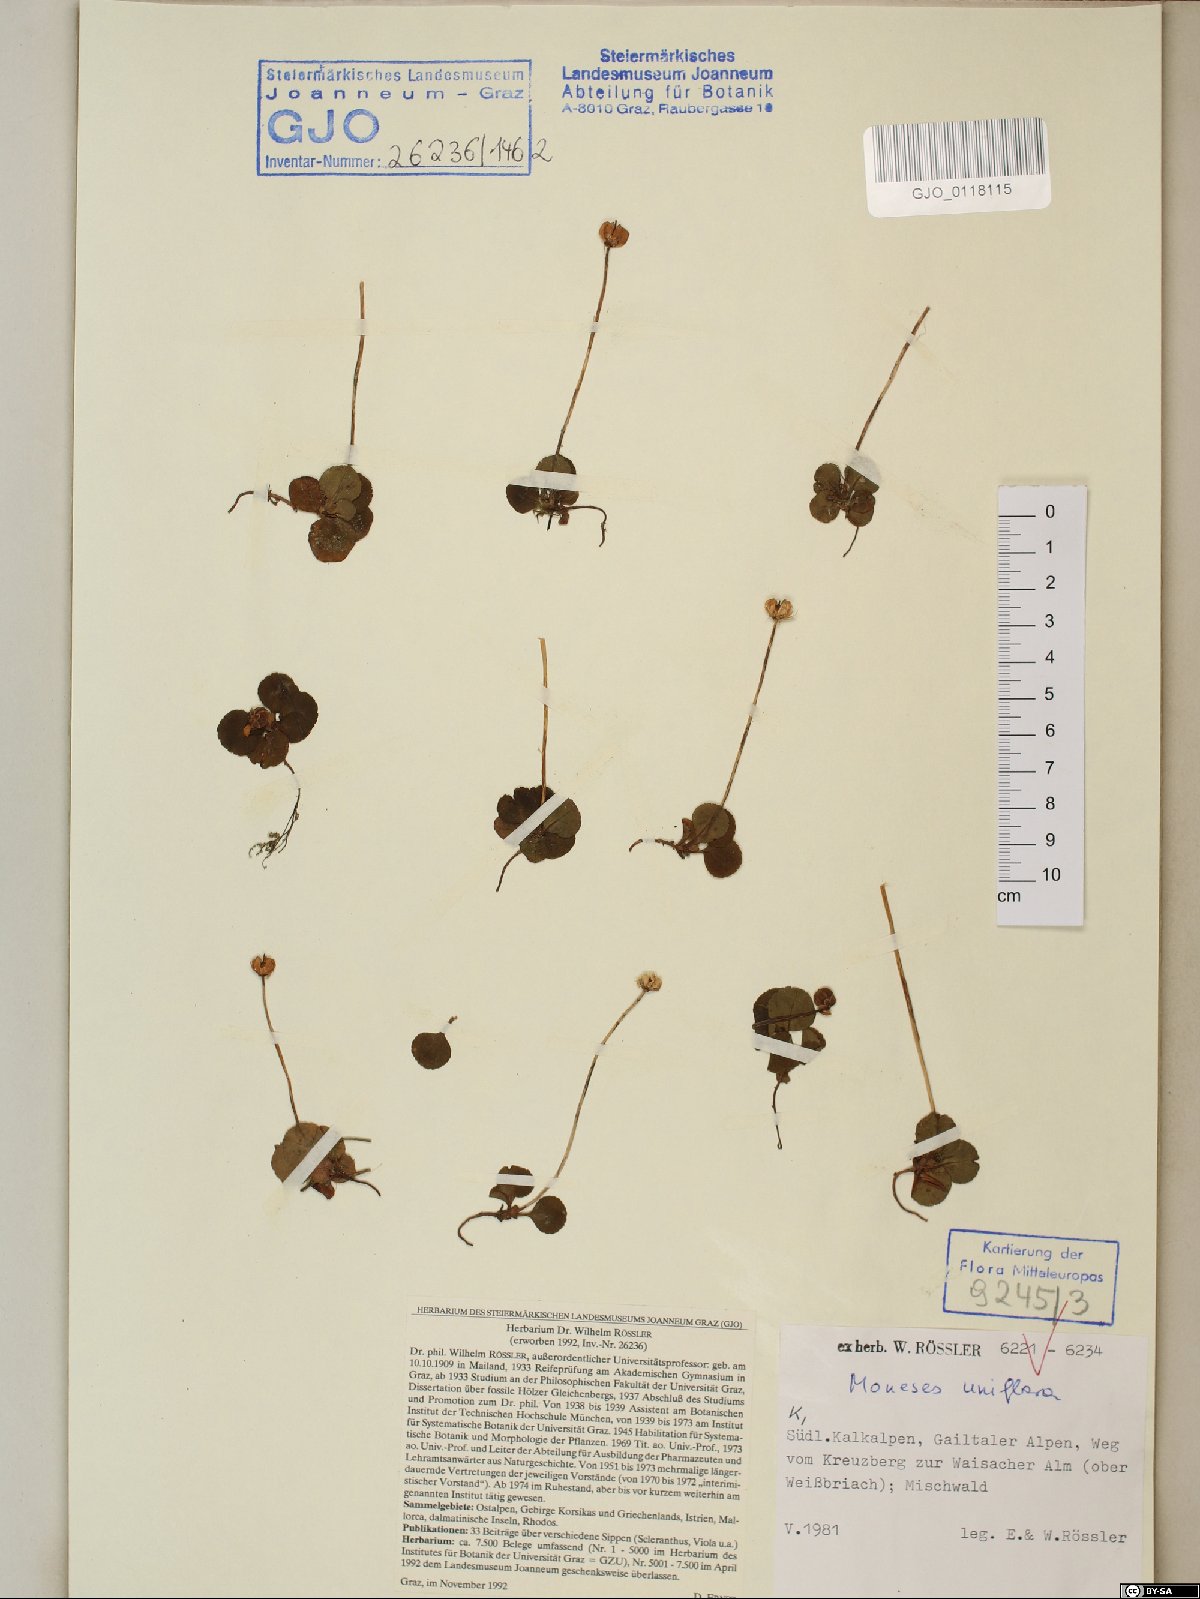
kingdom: Plantae
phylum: Tracheophyta
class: Magnoliopsida
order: Ericales
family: Ericaceae
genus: Moneses
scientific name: Moneses uniflora
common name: One-flowered wintergreen
